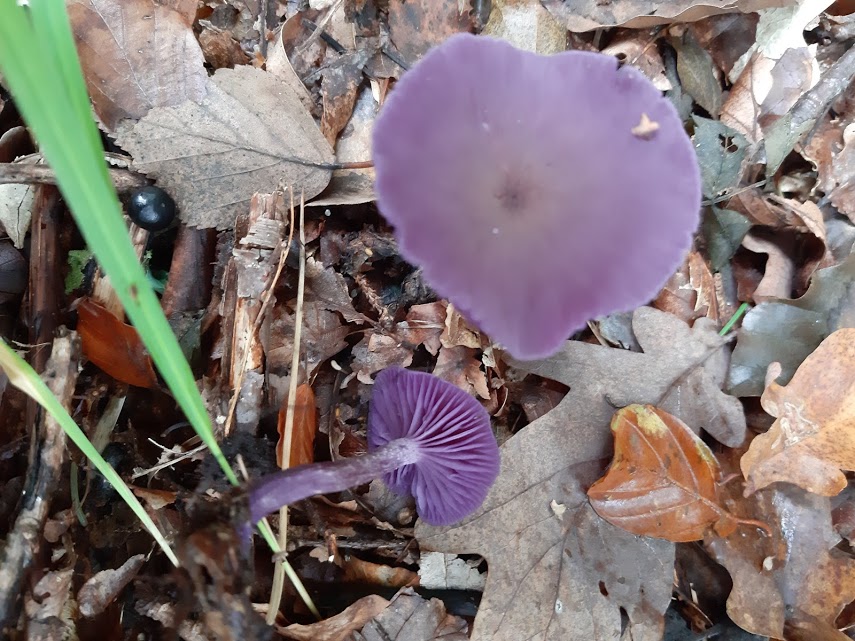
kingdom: Fungi
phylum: Basidiomycota
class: Agaricomycetes
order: Agaricales
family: Hydnangiaceae
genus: Laccaria
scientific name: Laccaria amethystina
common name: violet ametysthat
